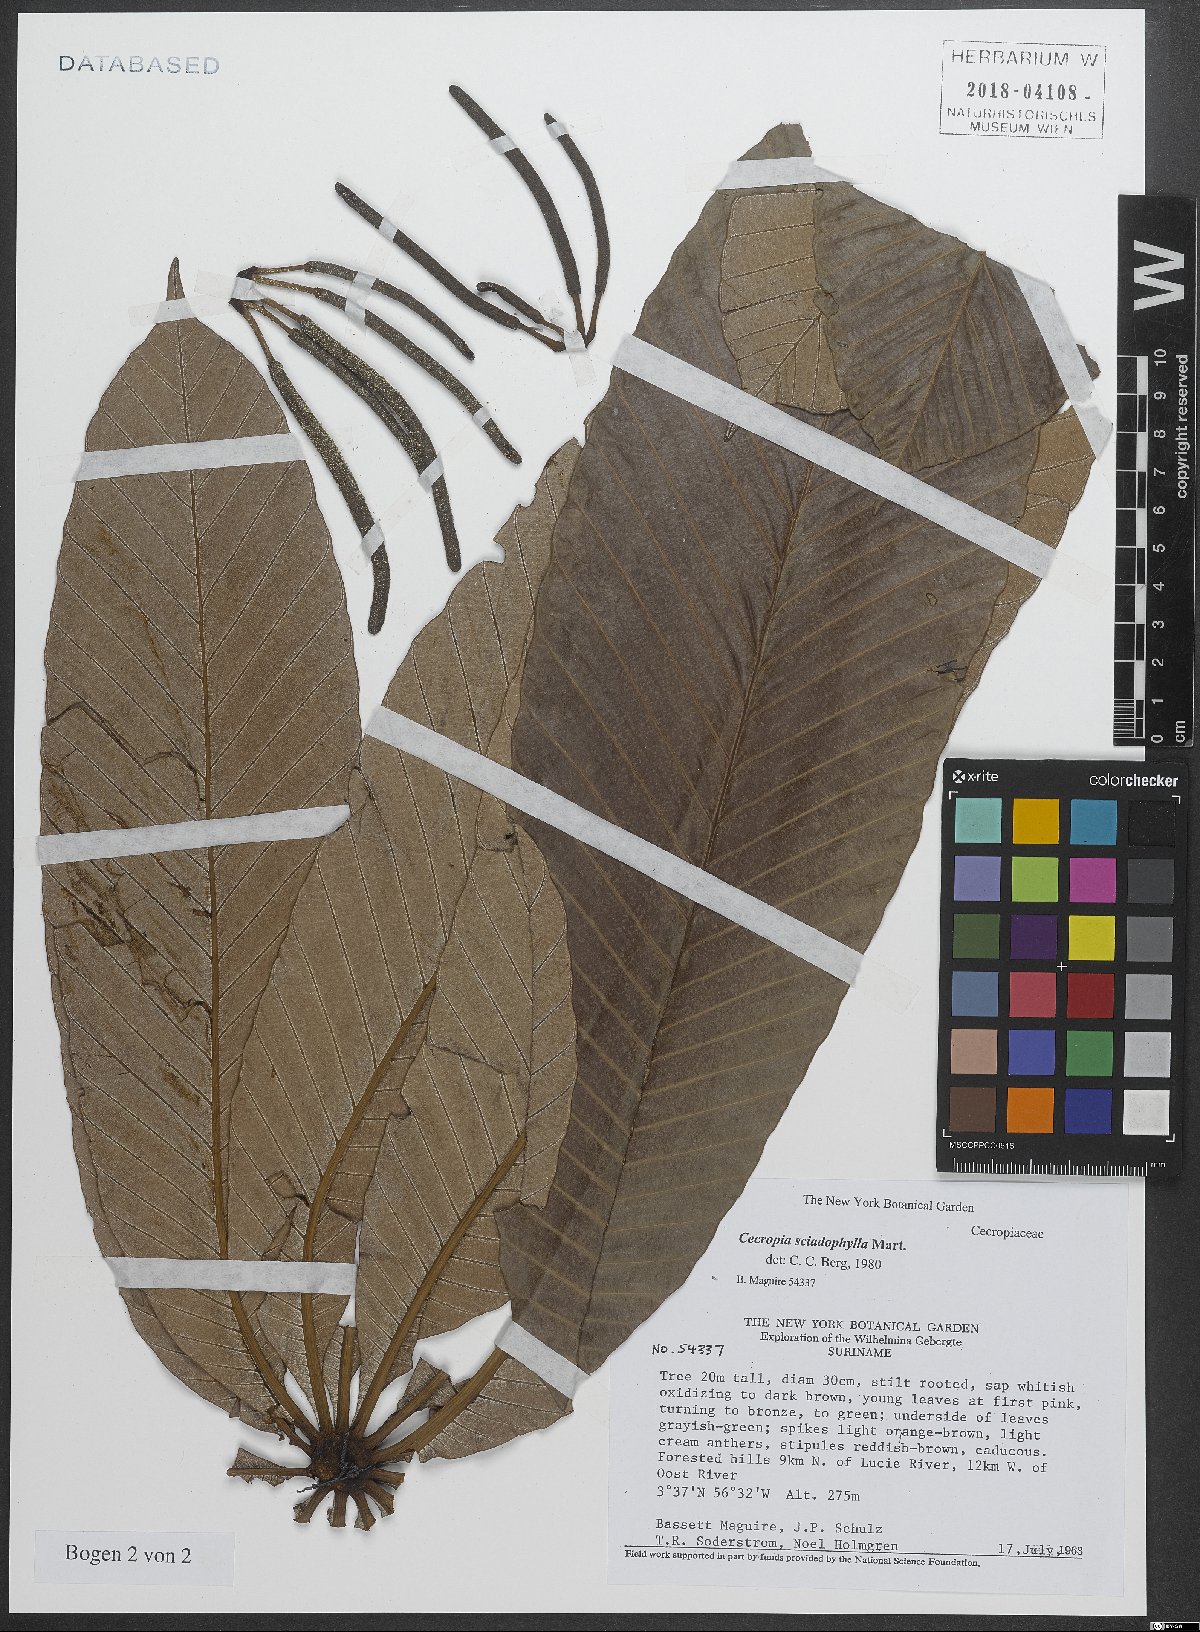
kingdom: Plantae
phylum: Tracheophyta
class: Magnoliopsida
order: Rosales
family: Urticaceae
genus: Cecropia
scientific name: Cecropia sciadophylla
